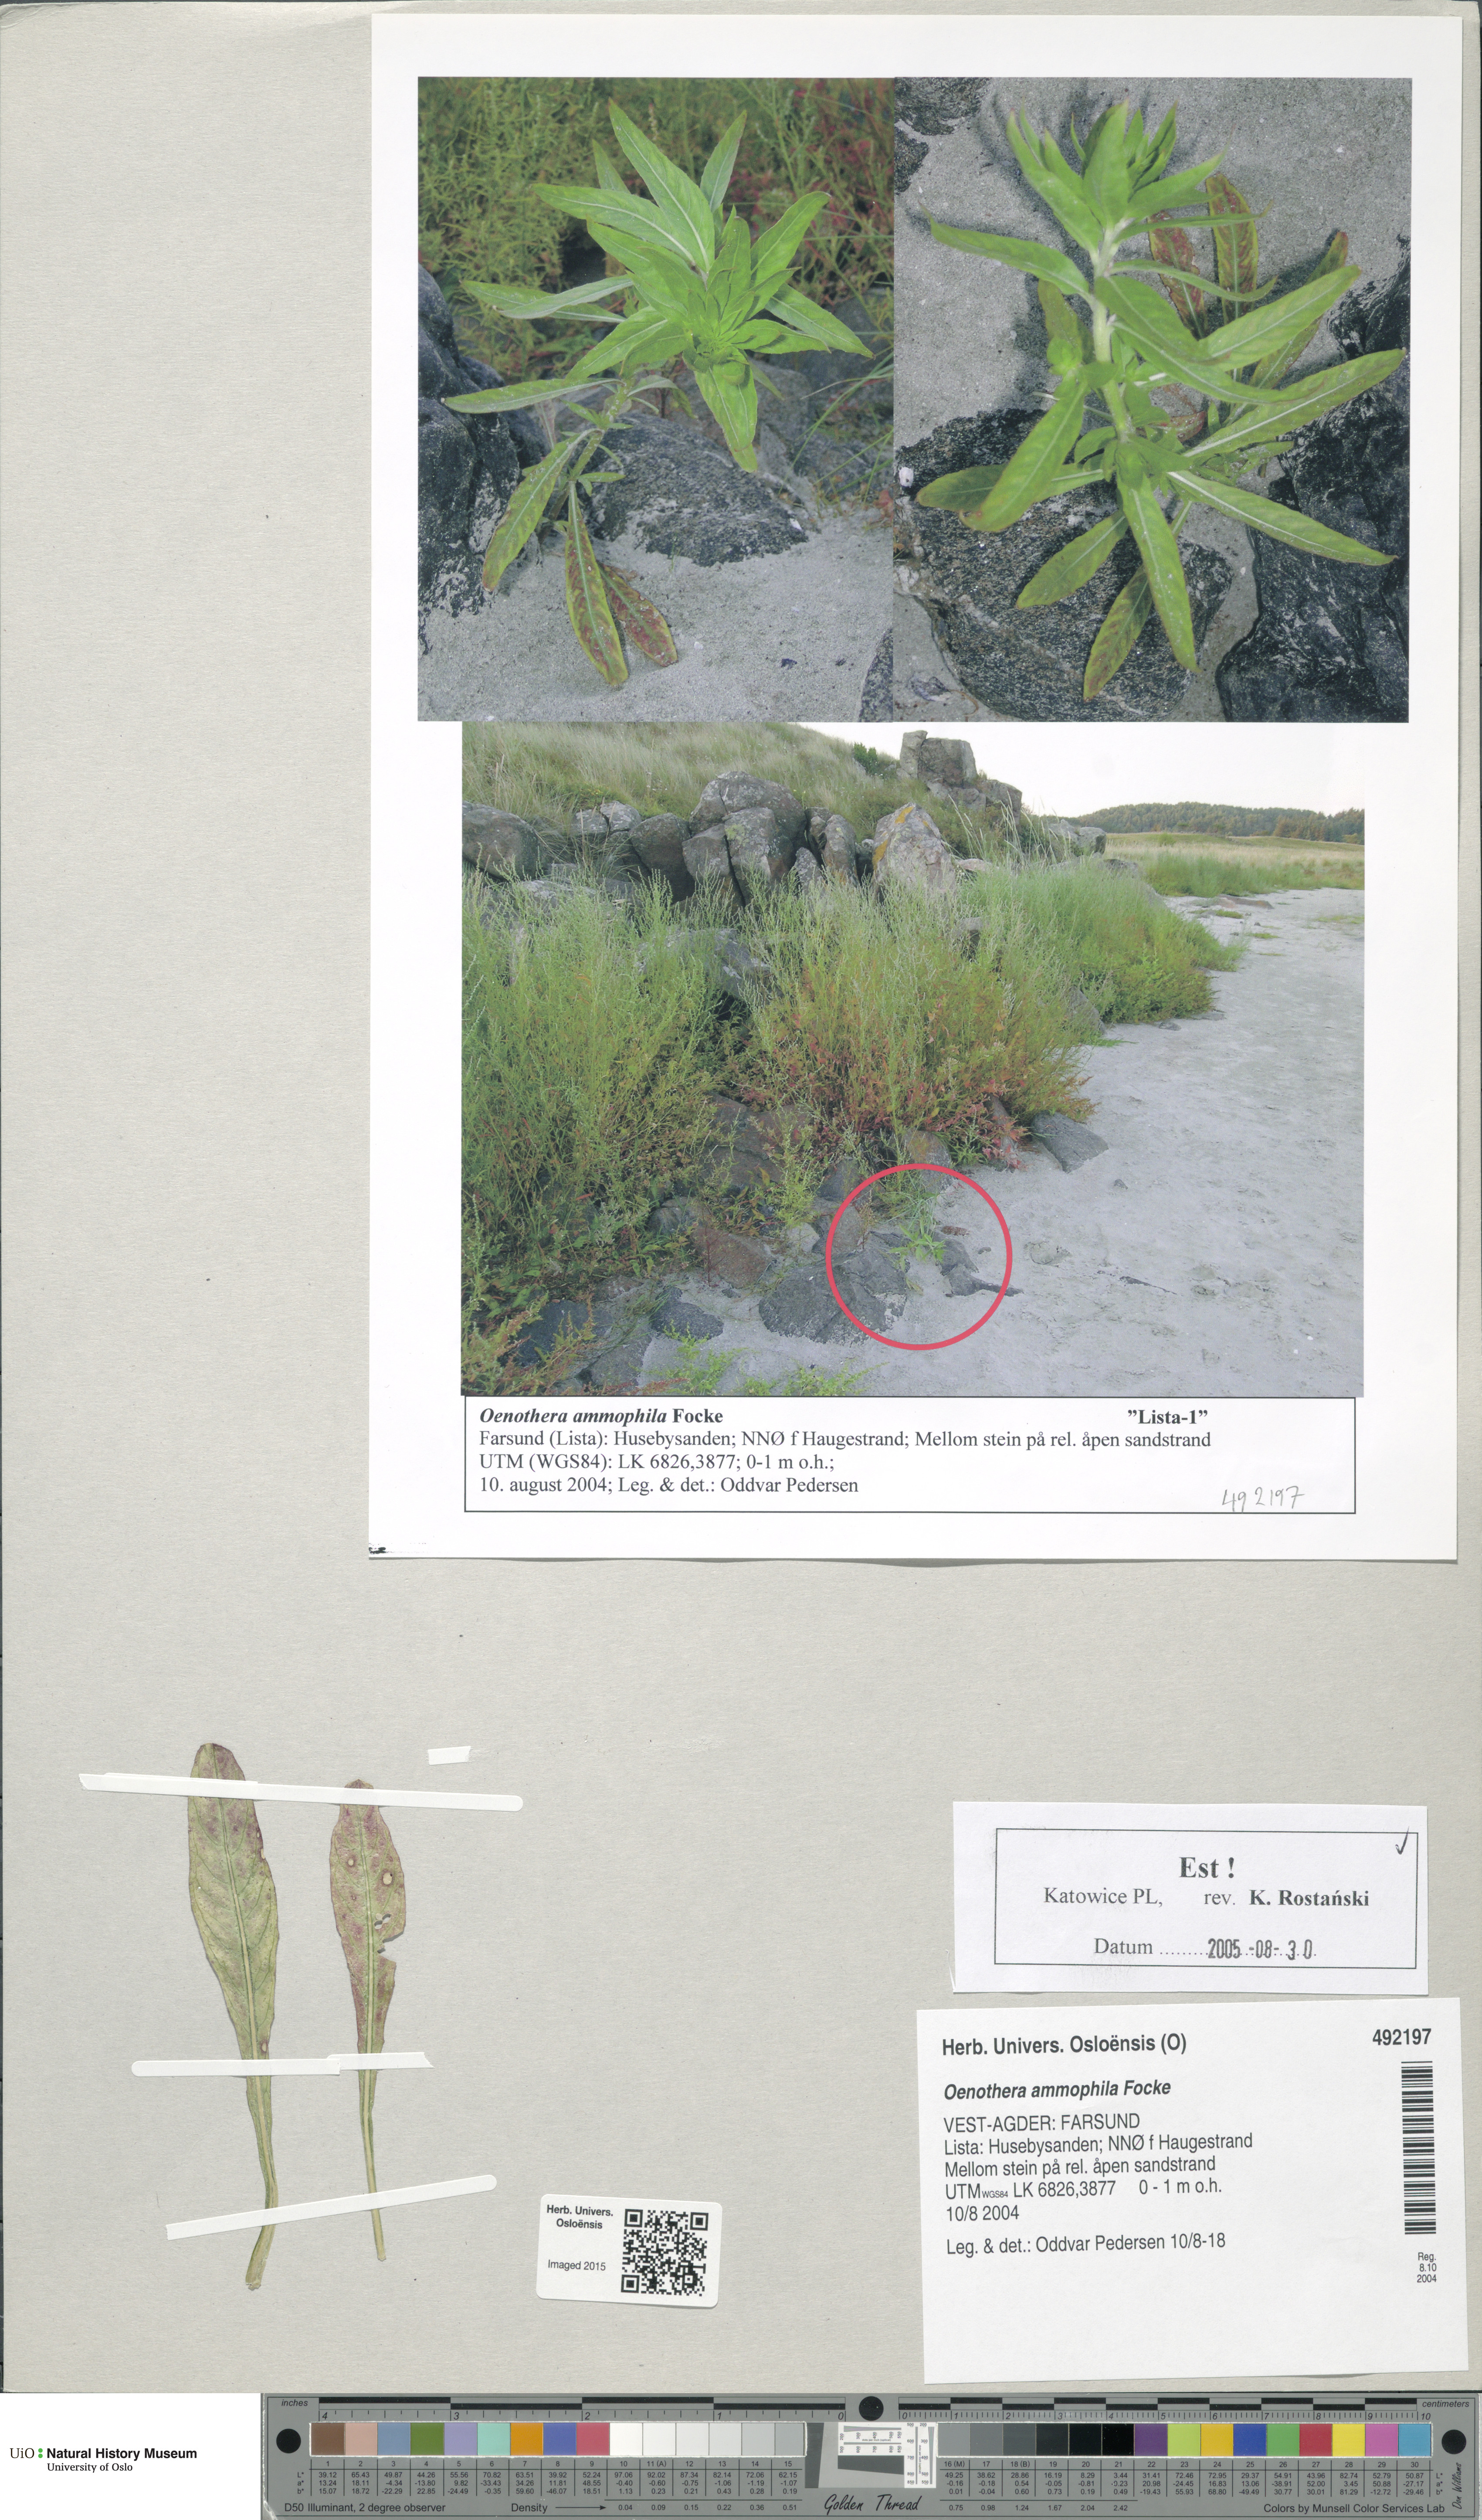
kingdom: Plantae
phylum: Tracheophyta
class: Magnoliopsida
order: Myrtales
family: Onagraceae
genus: Oenothera
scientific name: Oenothera ammophila
